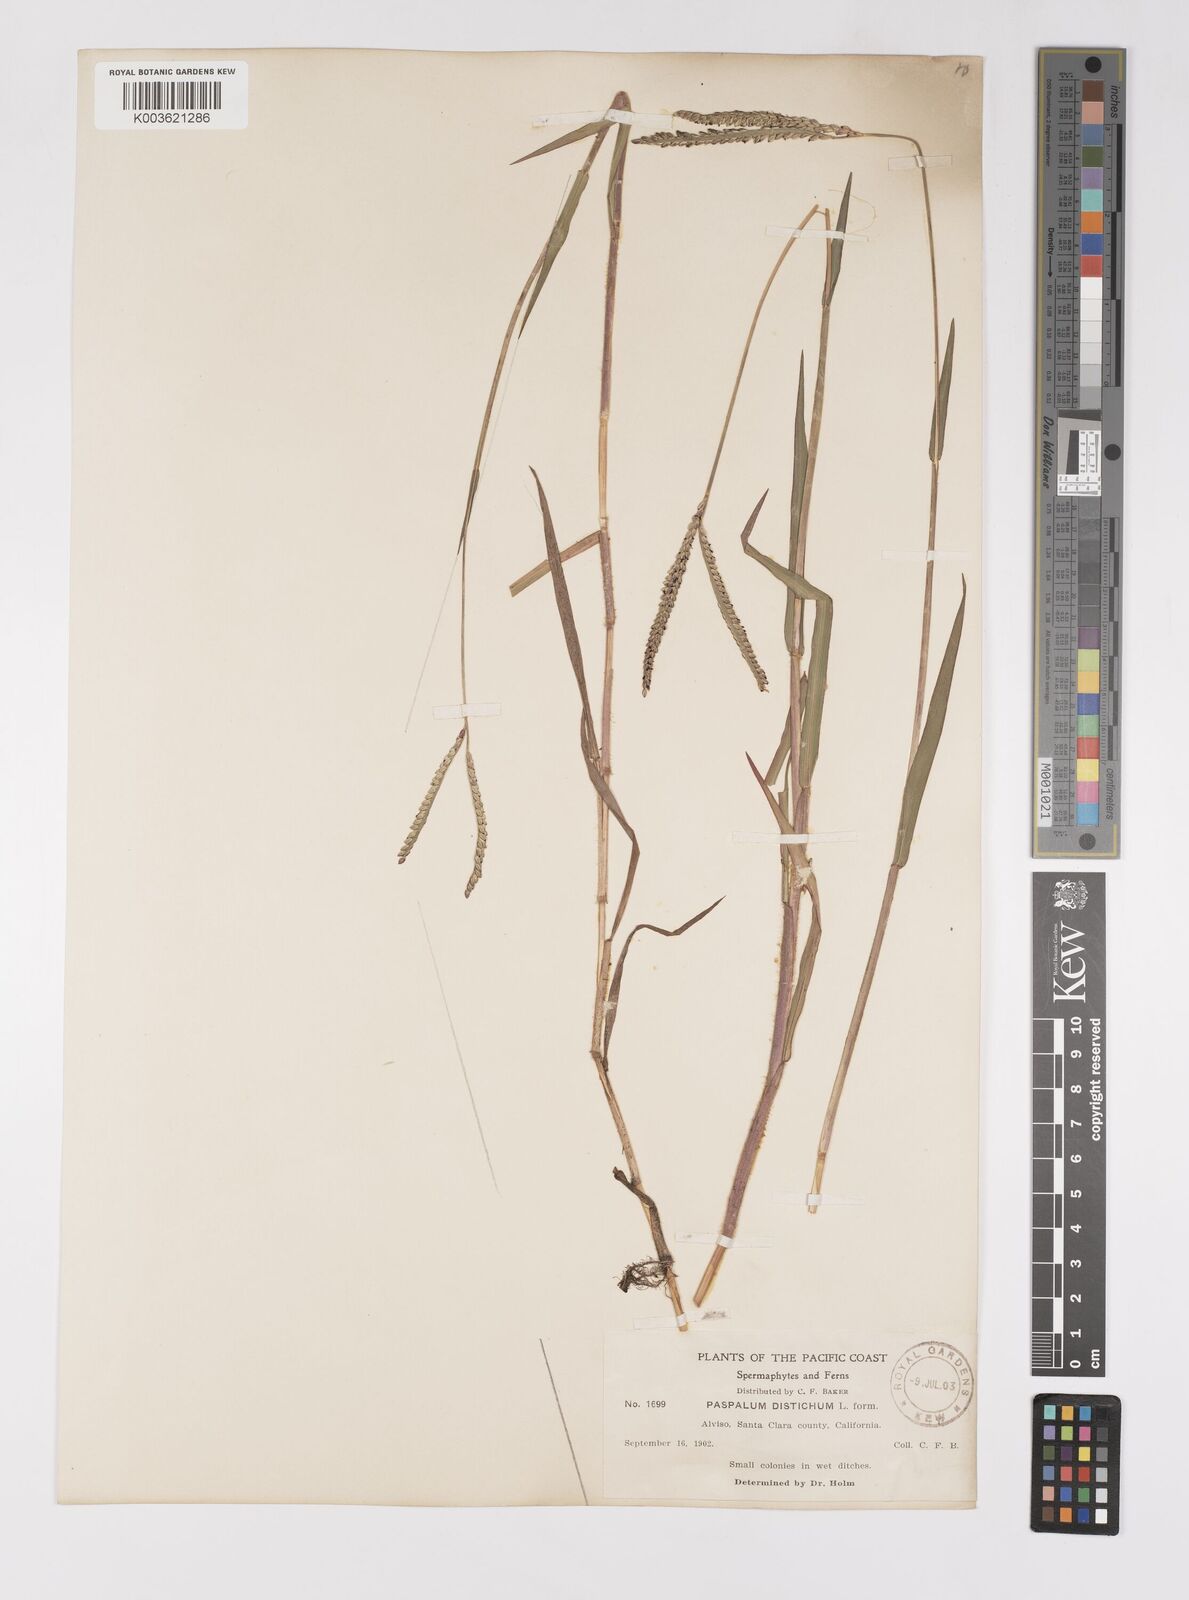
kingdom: Plantae
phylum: Tracheophyta
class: Liliopsida
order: Poales
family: Poaceae
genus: Paspalum
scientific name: Paspalum distichum
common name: Knotgrass
